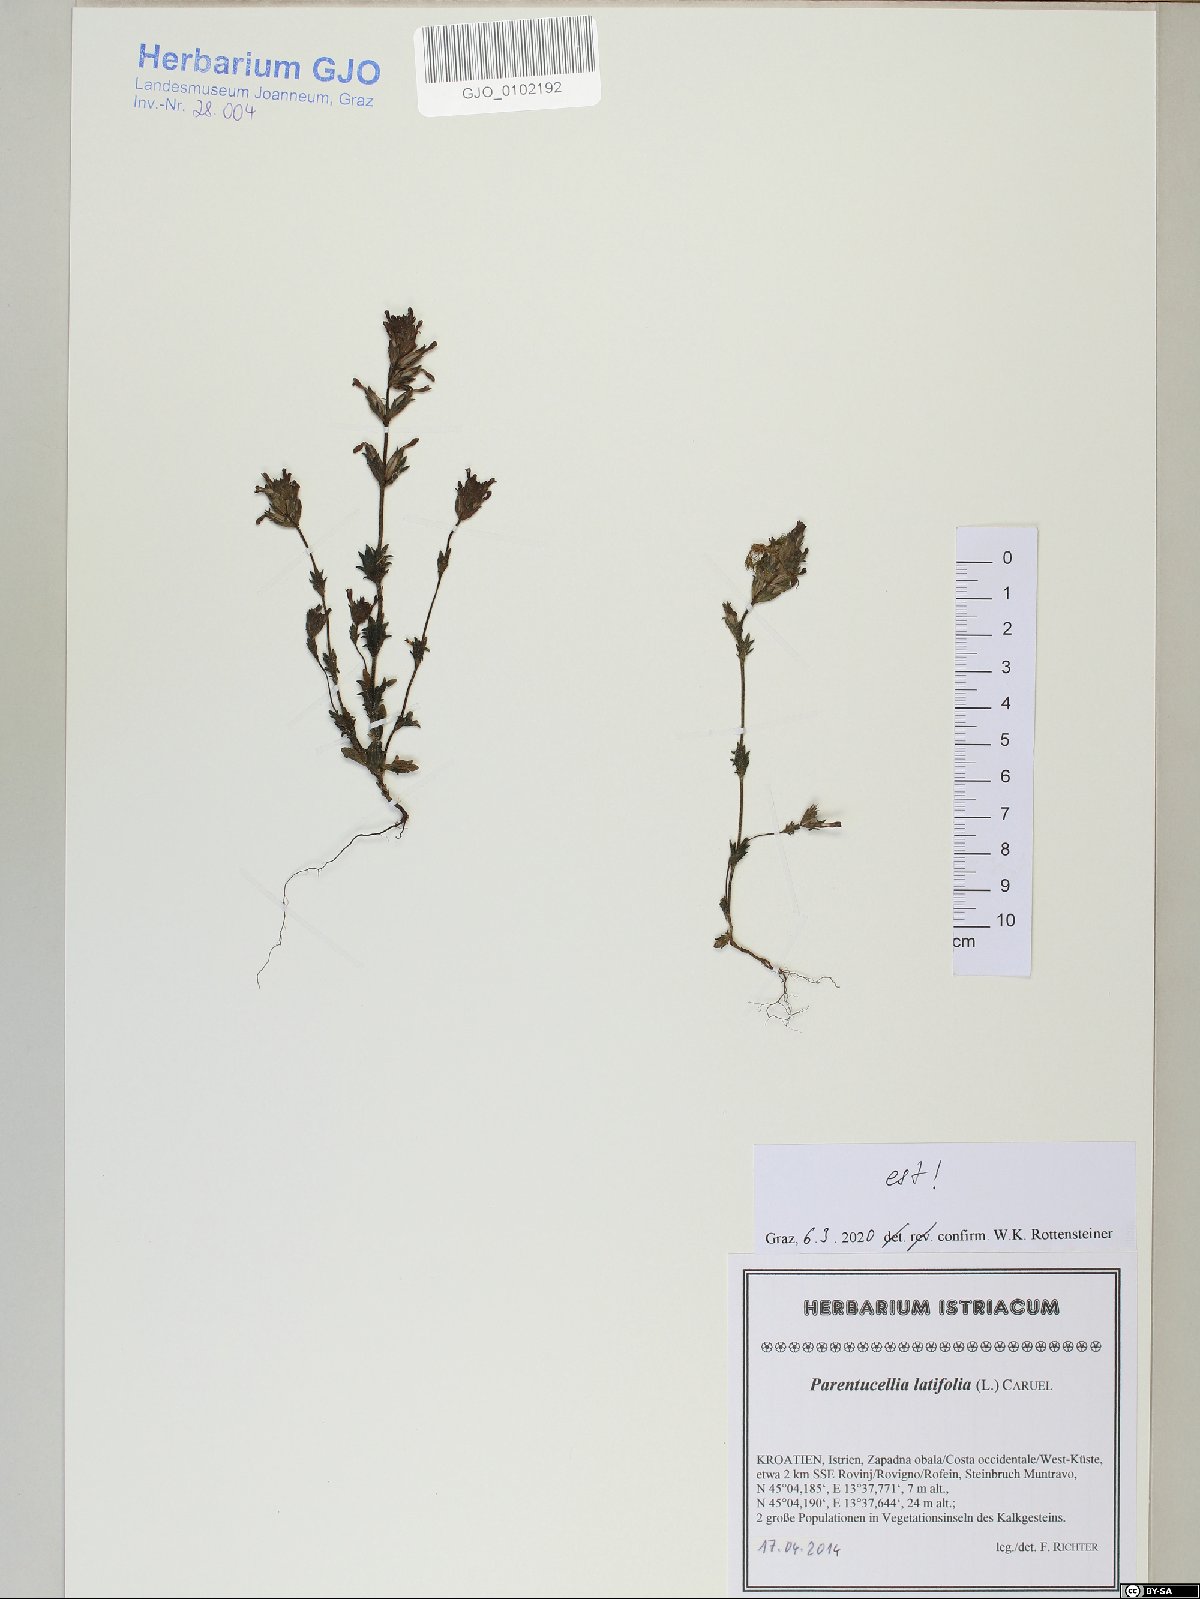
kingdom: Plantae
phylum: Tracheophyta
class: Magnoliopsida
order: Lamiales
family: Orobanchaceae
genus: Parentucellia
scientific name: Parentucellia latifolia
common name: Broadleaf glandweed
